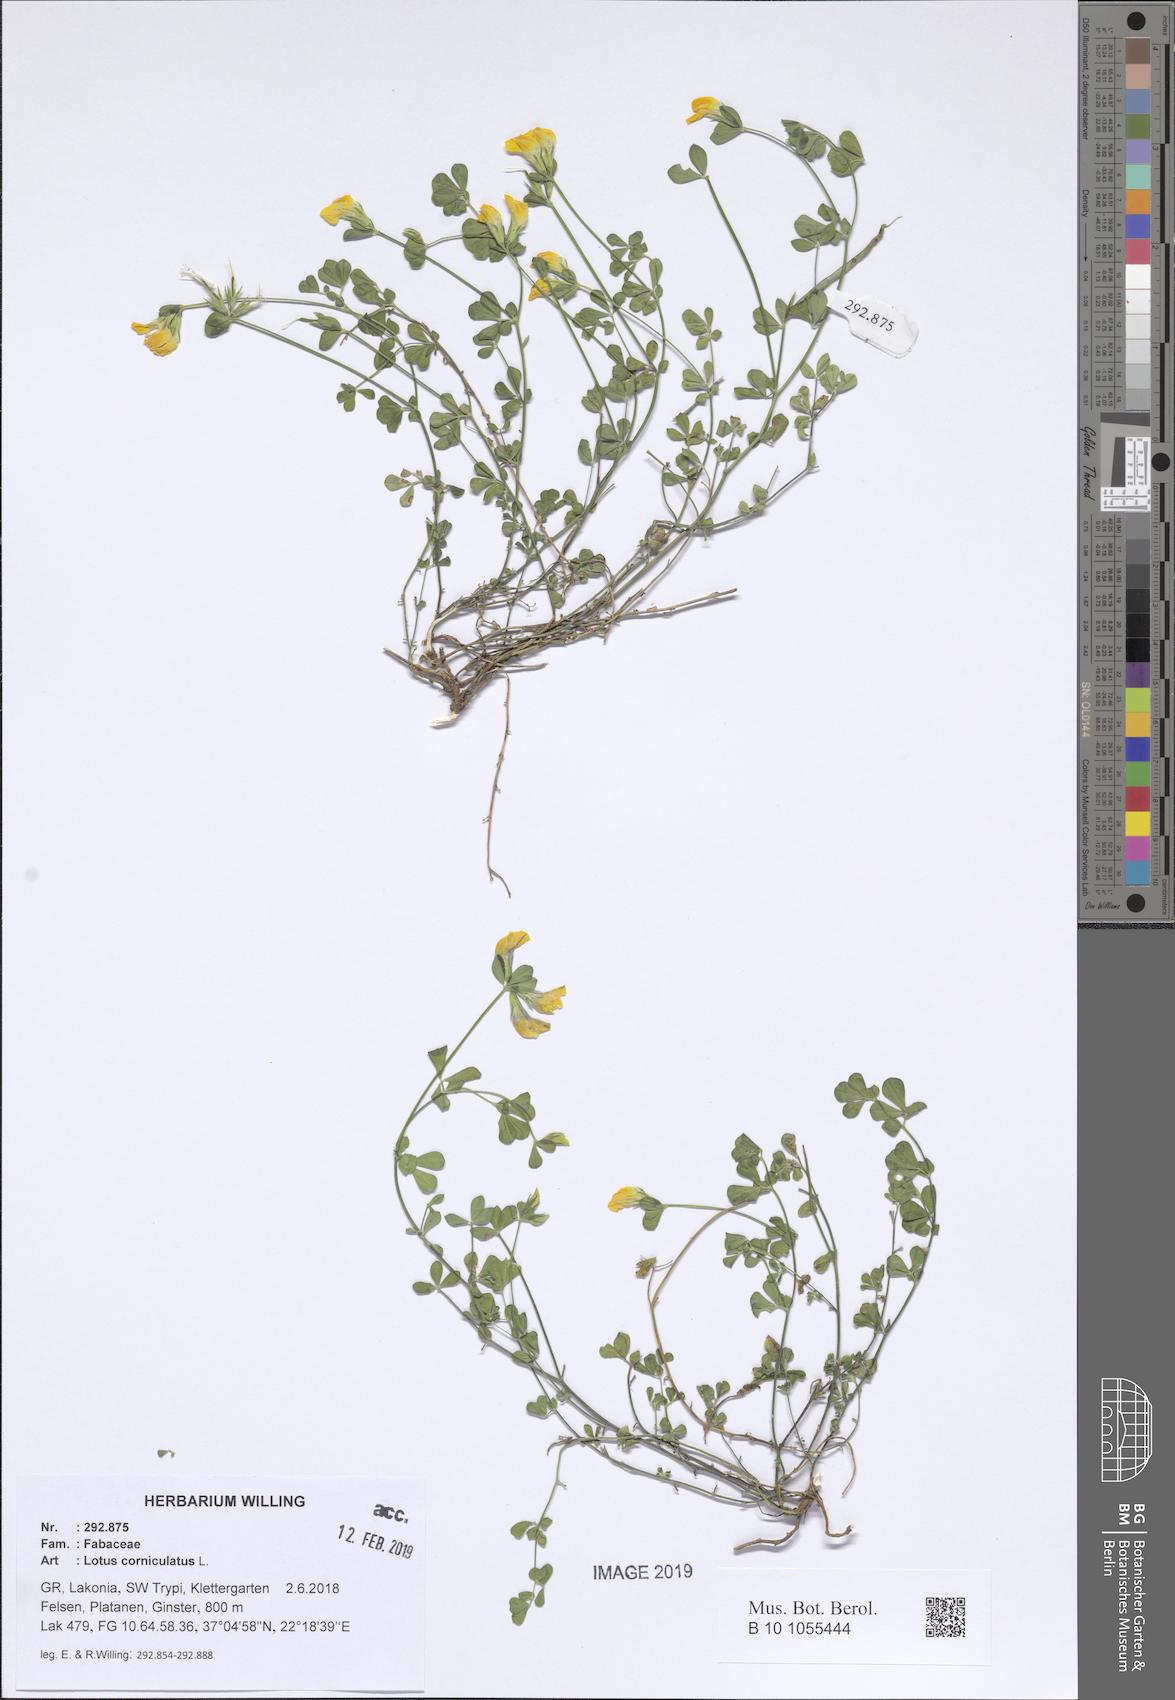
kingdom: Plantae
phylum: Tracheophyta
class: Magnoliopsida
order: Fabales
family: Fabaceae
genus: Lotus
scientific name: Lotus corniculatus
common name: Common bird's-foot-trefoil
